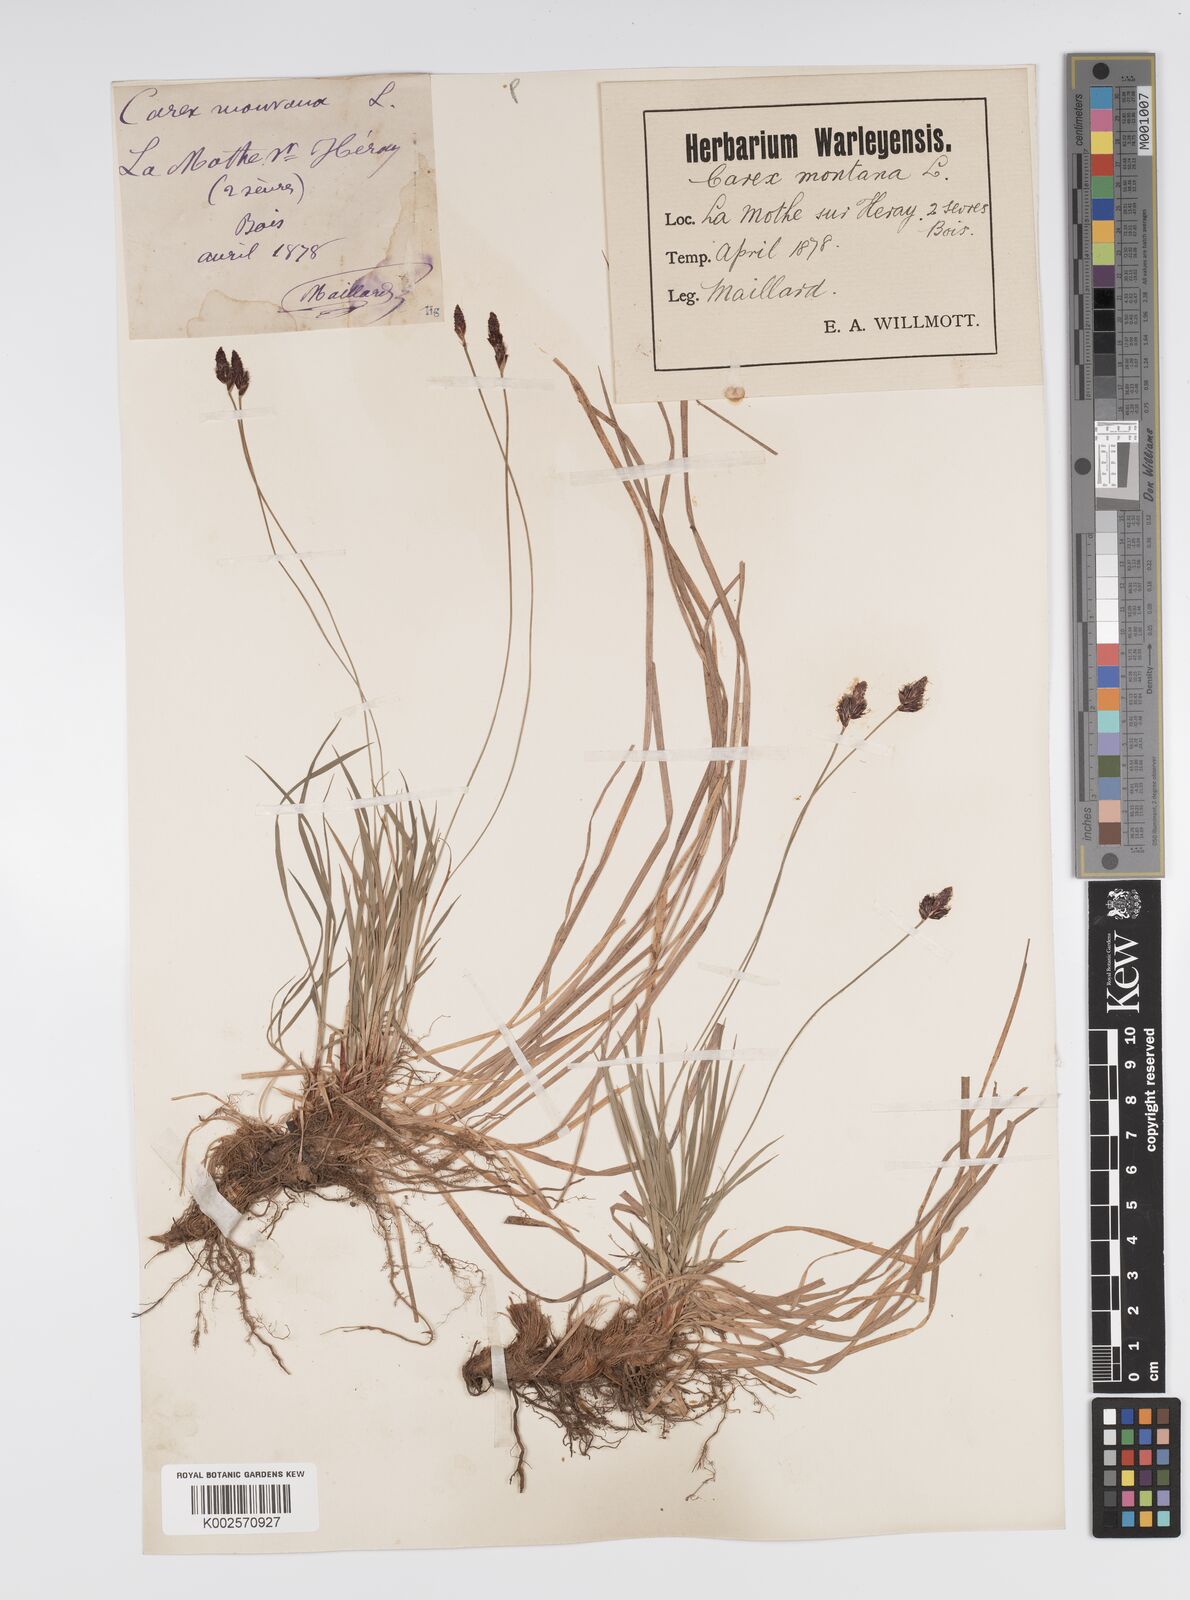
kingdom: Plantae
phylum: Tracheophyta
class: Liliopsida
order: Poales
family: Cyperaceae
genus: Carex
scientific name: Carex montana
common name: Soft-leaved sedge
